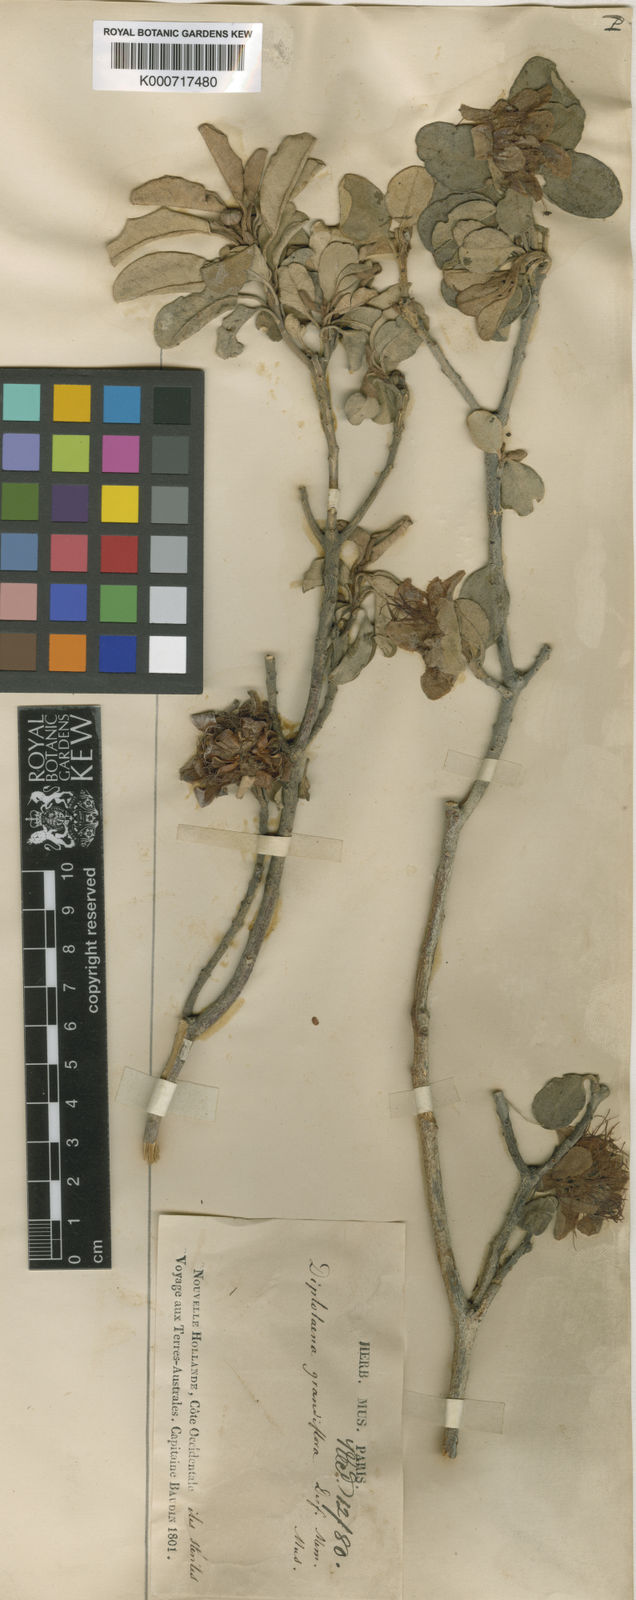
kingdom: Plantae
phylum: Tracheophyta
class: Magnoliopsida
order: Sapindales
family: Rutaceae
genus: Diplolaena
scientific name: Diplolaena grandiflora
